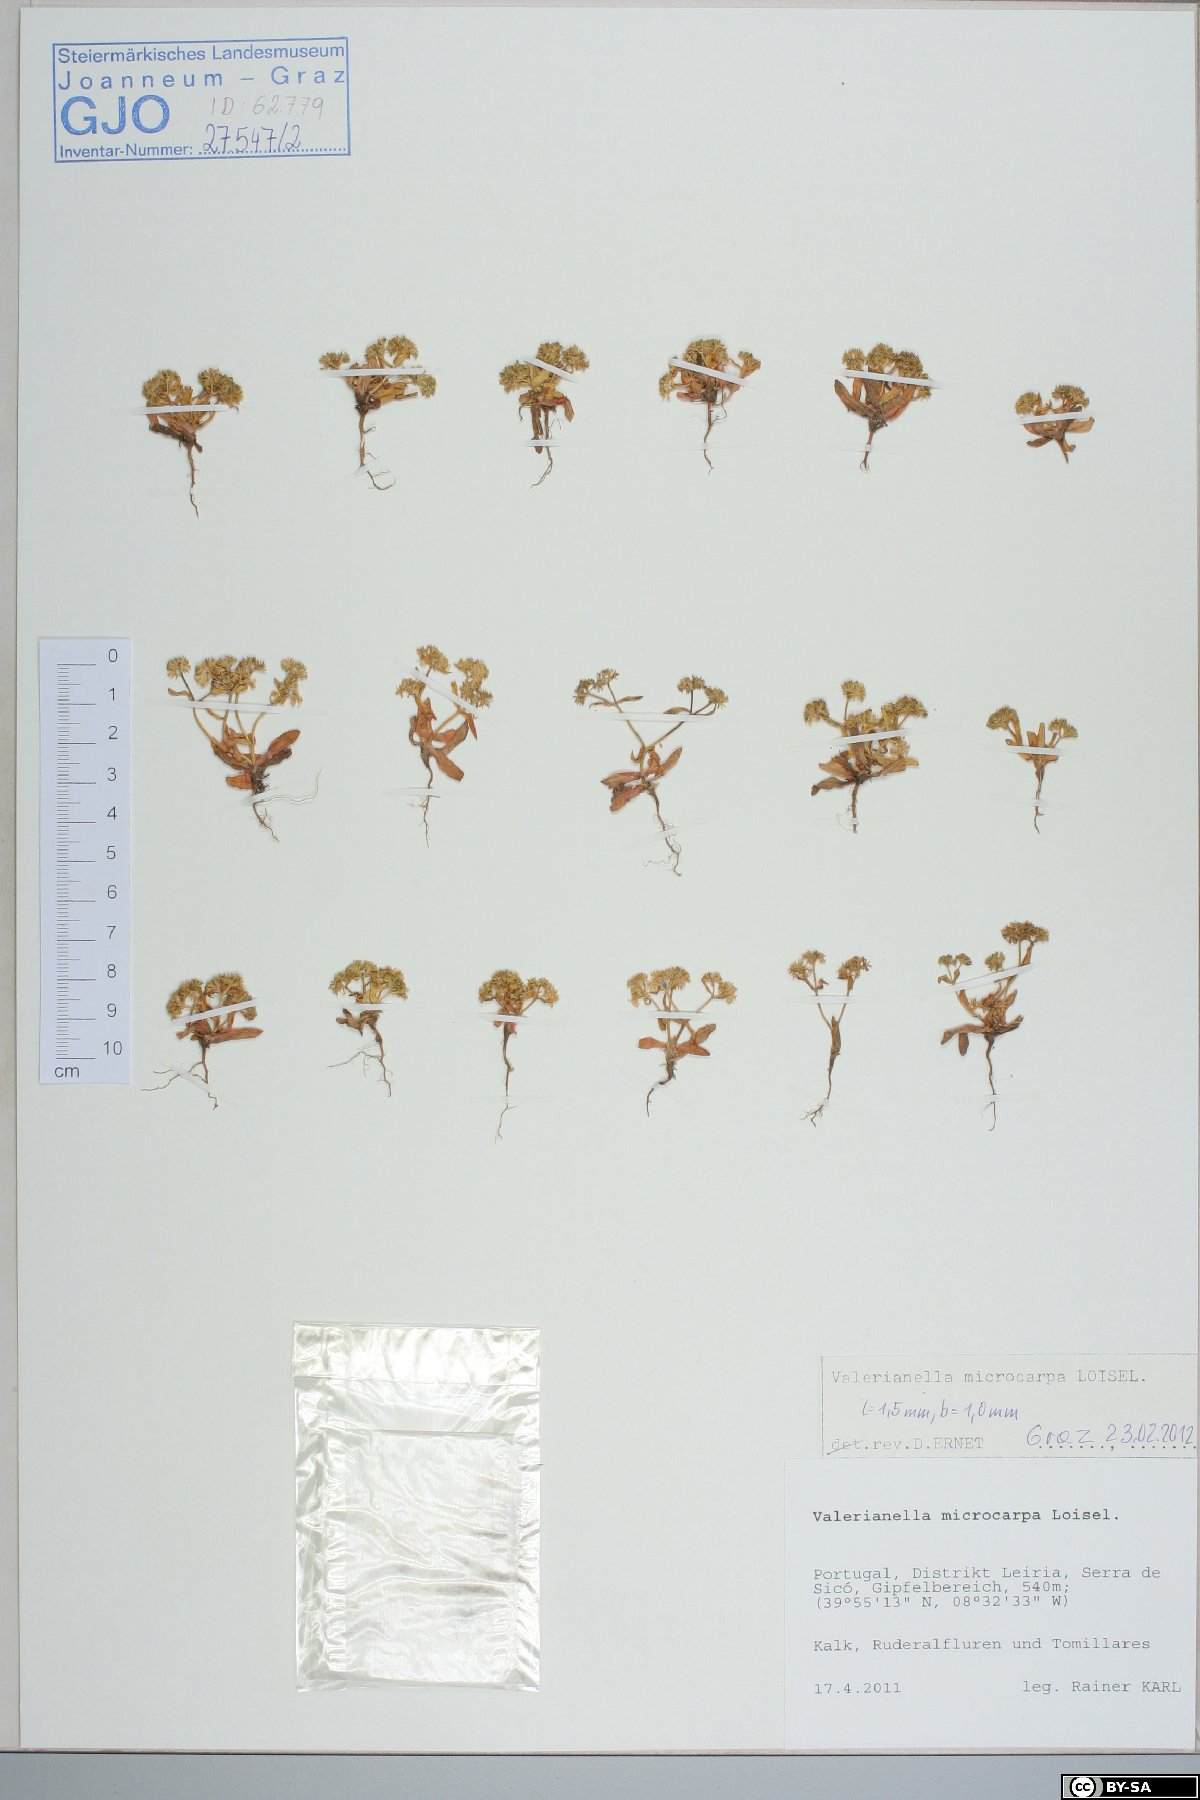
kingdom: Plantae
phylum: Tracheophyta
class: Magnoliopsida
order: Dipsacales
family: Caprifoliaceae
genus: Valerianella
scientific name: Valerianella microcarpa
